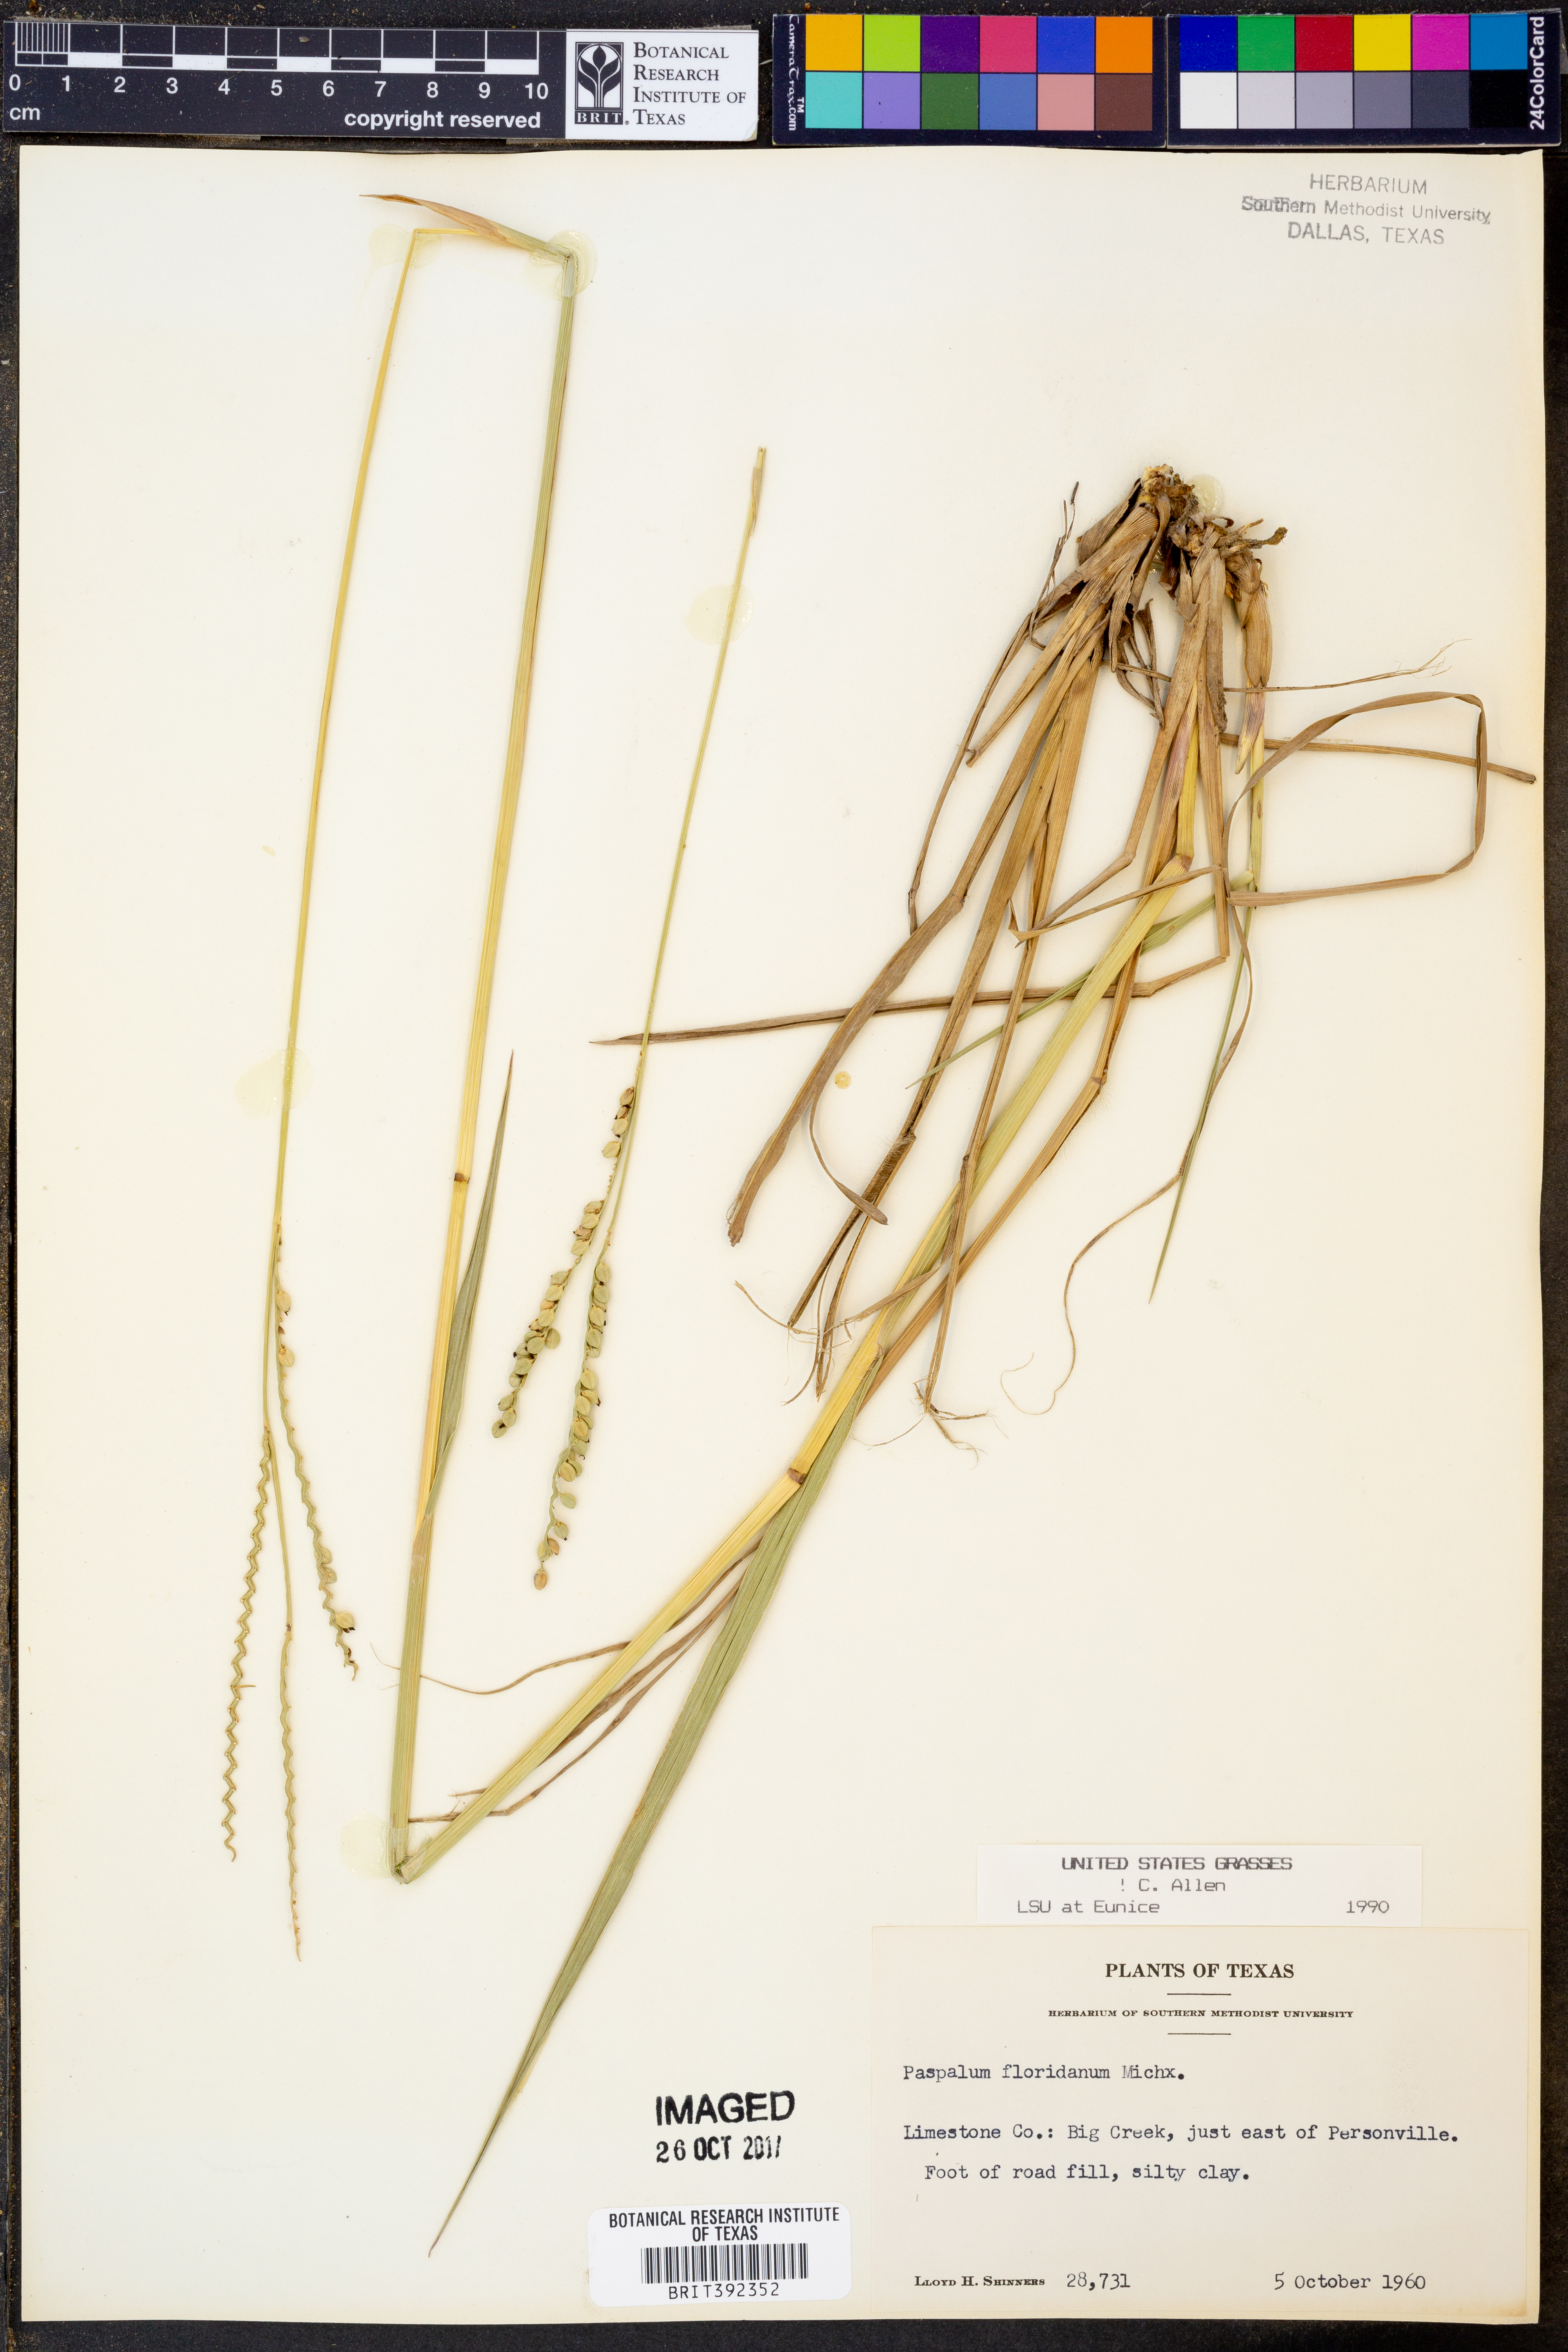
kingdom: Plantae
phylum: Tracheophyta
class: Liliopsida
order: Poales
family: Poaceae
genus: Paspalum
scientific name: Paspalum floridanum
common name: Florida paspalum
